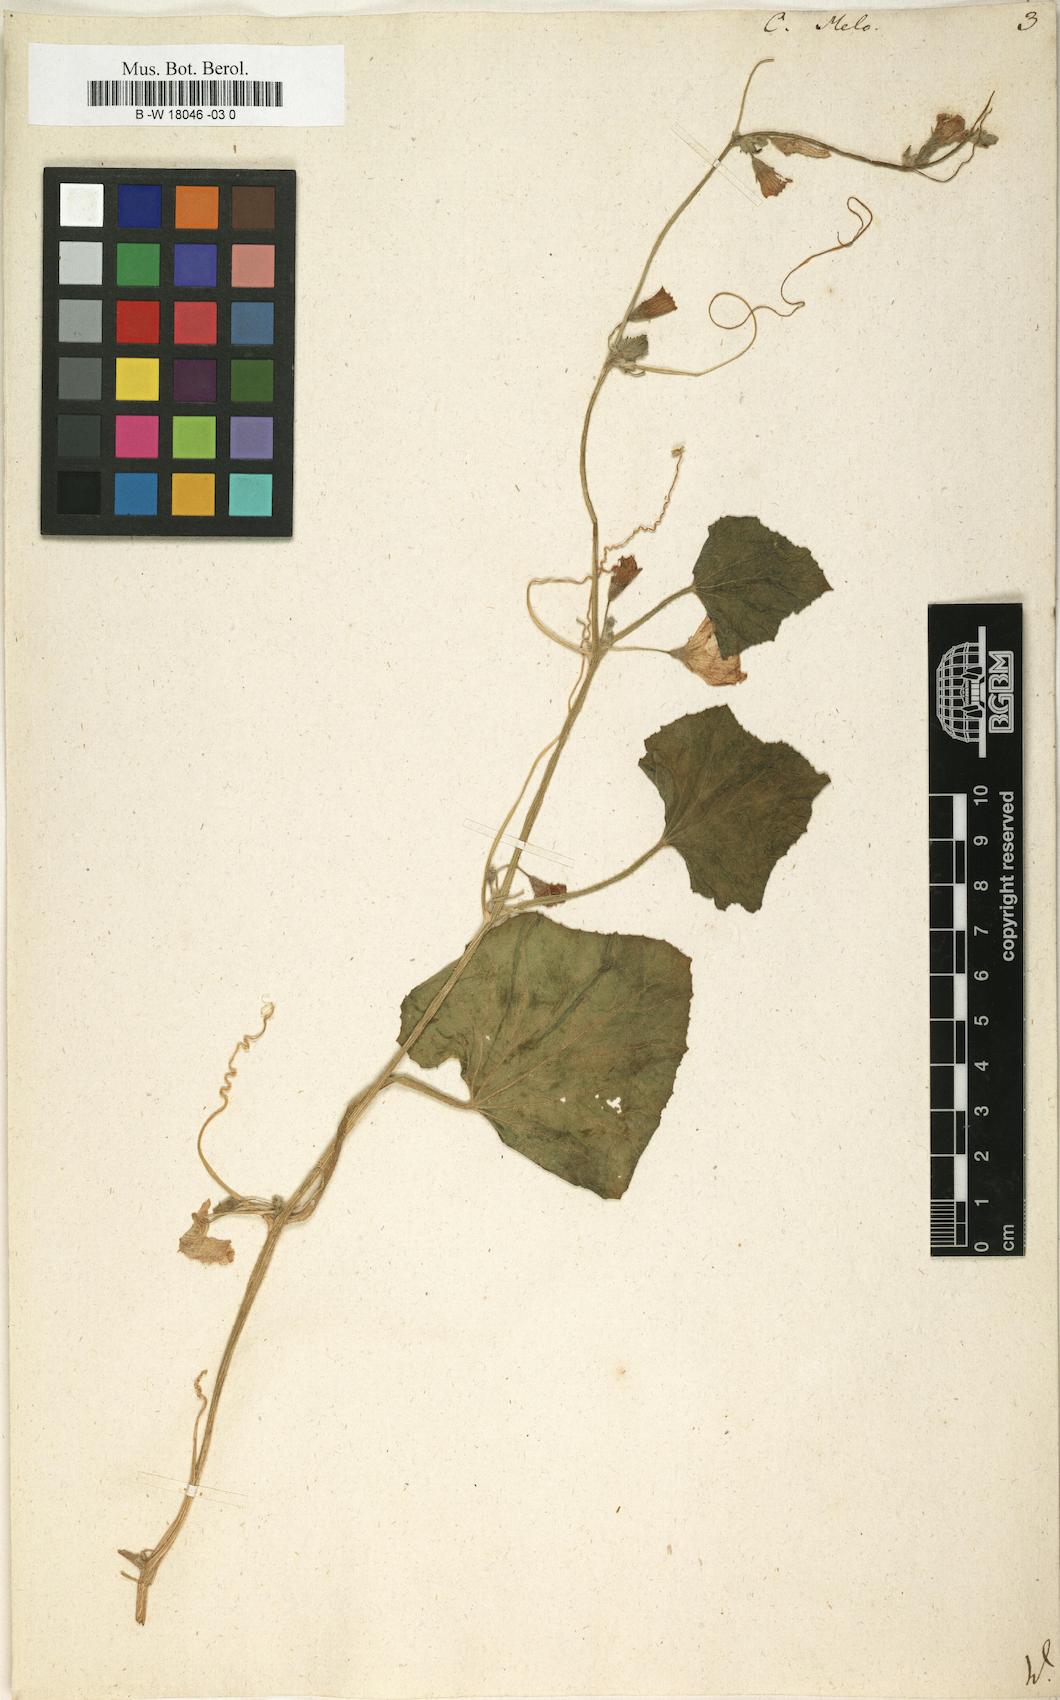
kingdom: Plantae
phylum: Tracheophyta
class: Magnoliopsida
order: Cucurbitales
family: Cucurbitaceae
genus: Cucumis
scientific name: Cucumis melo
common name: Melon
